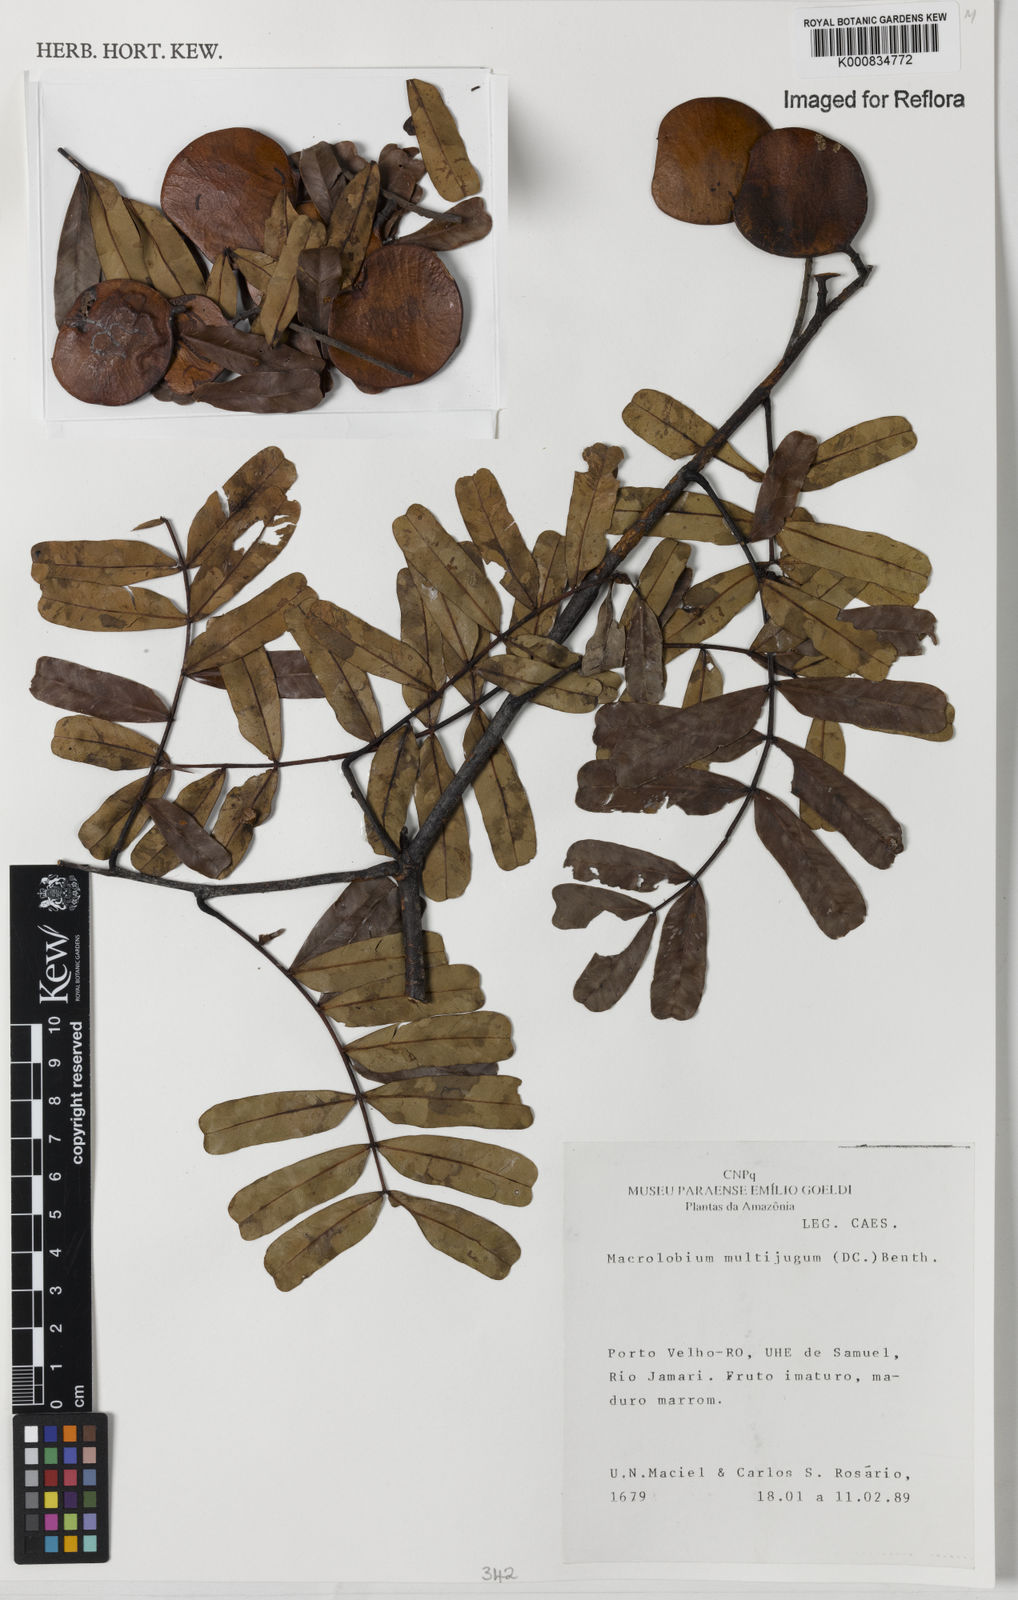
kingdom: Plantae
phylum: Tracheophyta
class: Magnoliopsida
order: Fabales
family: Fabaceae
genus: Macrolobium
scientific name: Macrolobium multijugum
